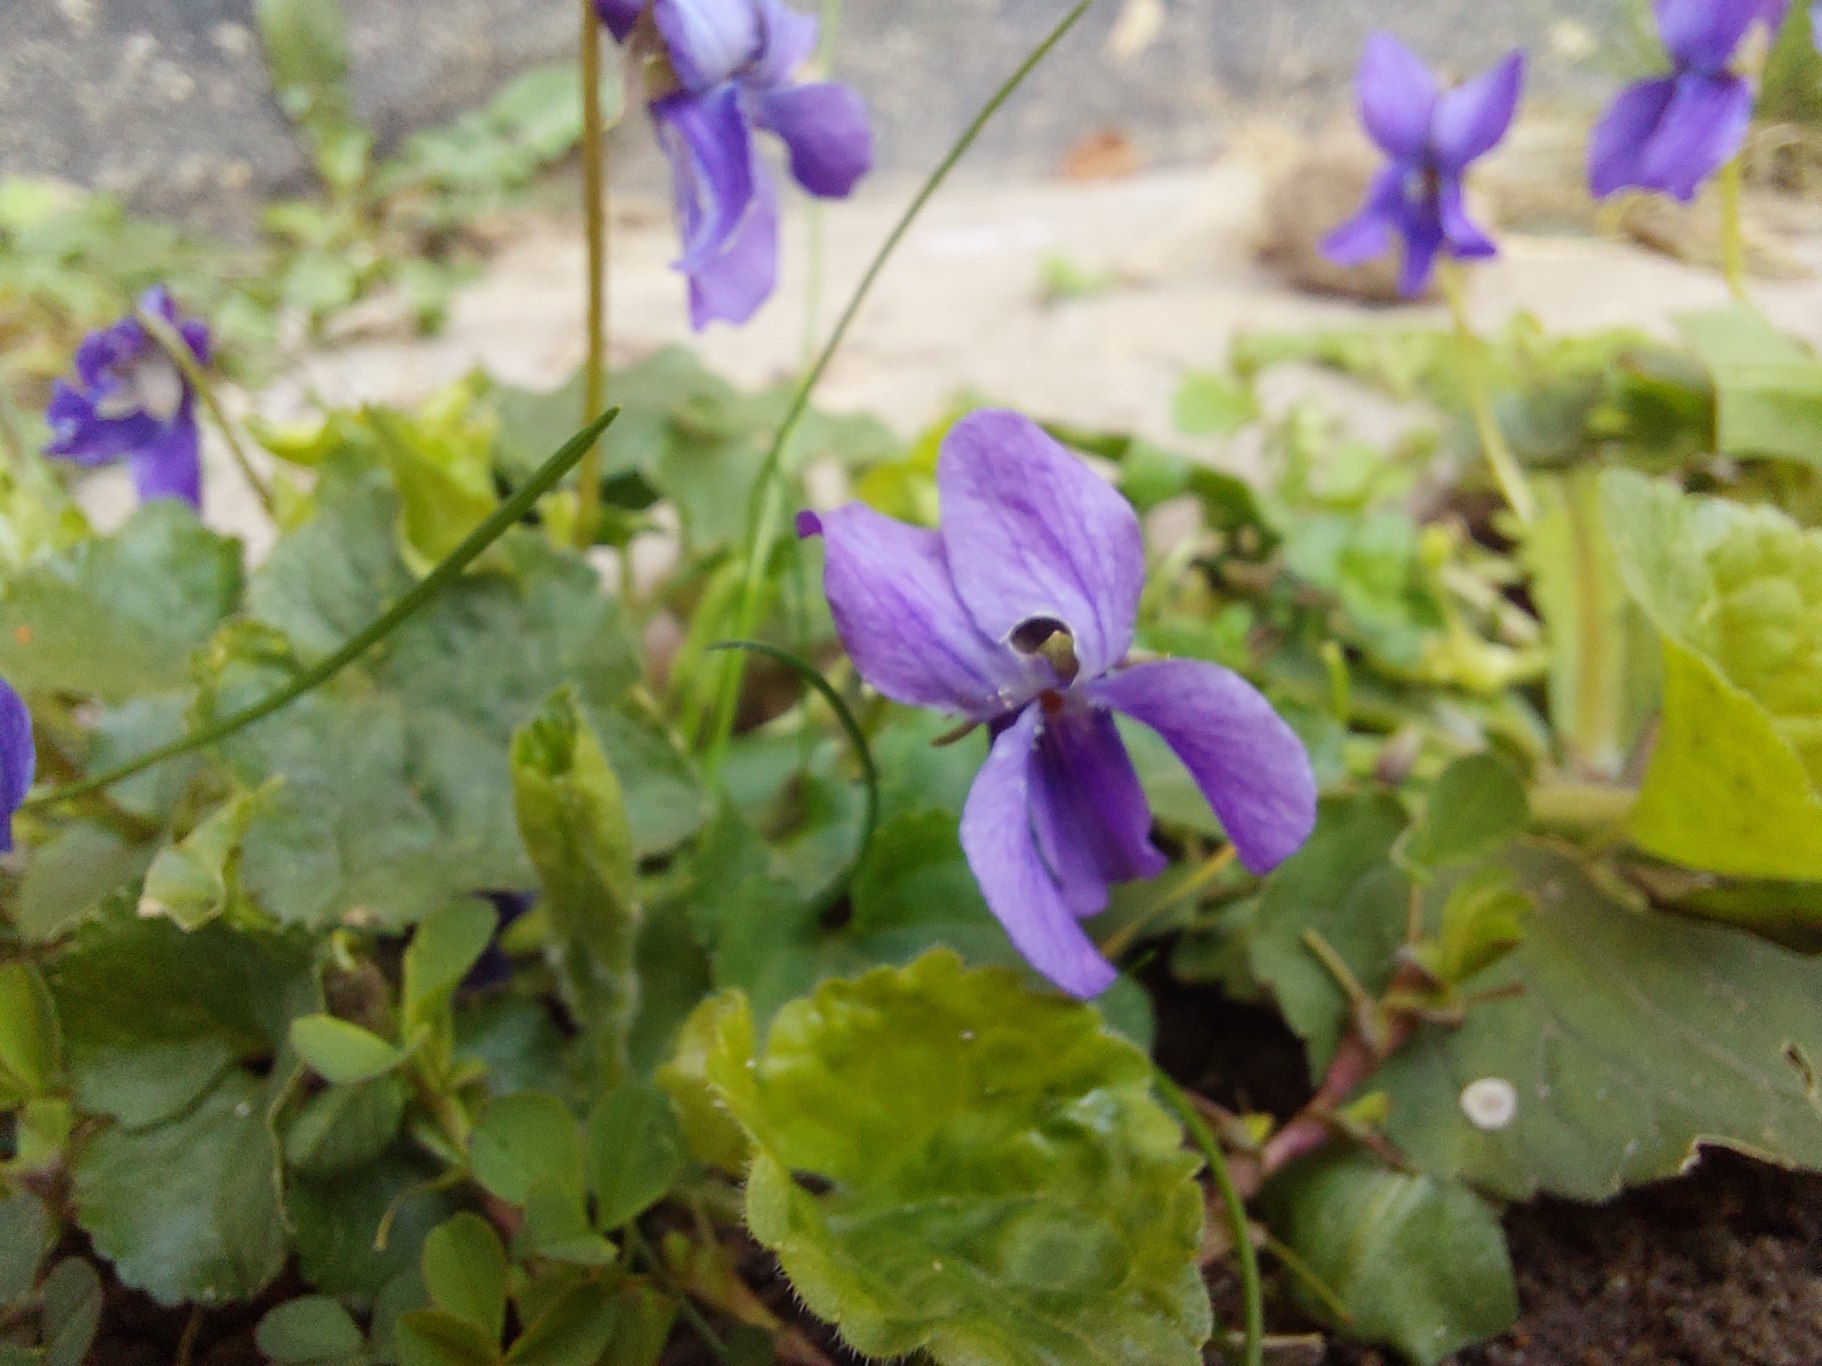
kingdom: Plantae
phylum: Tracheophyta
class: Magnoliopsida
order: Malpighiales
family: Violaceae
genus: Viola
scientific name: Viola odorata
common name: Marts-viol
